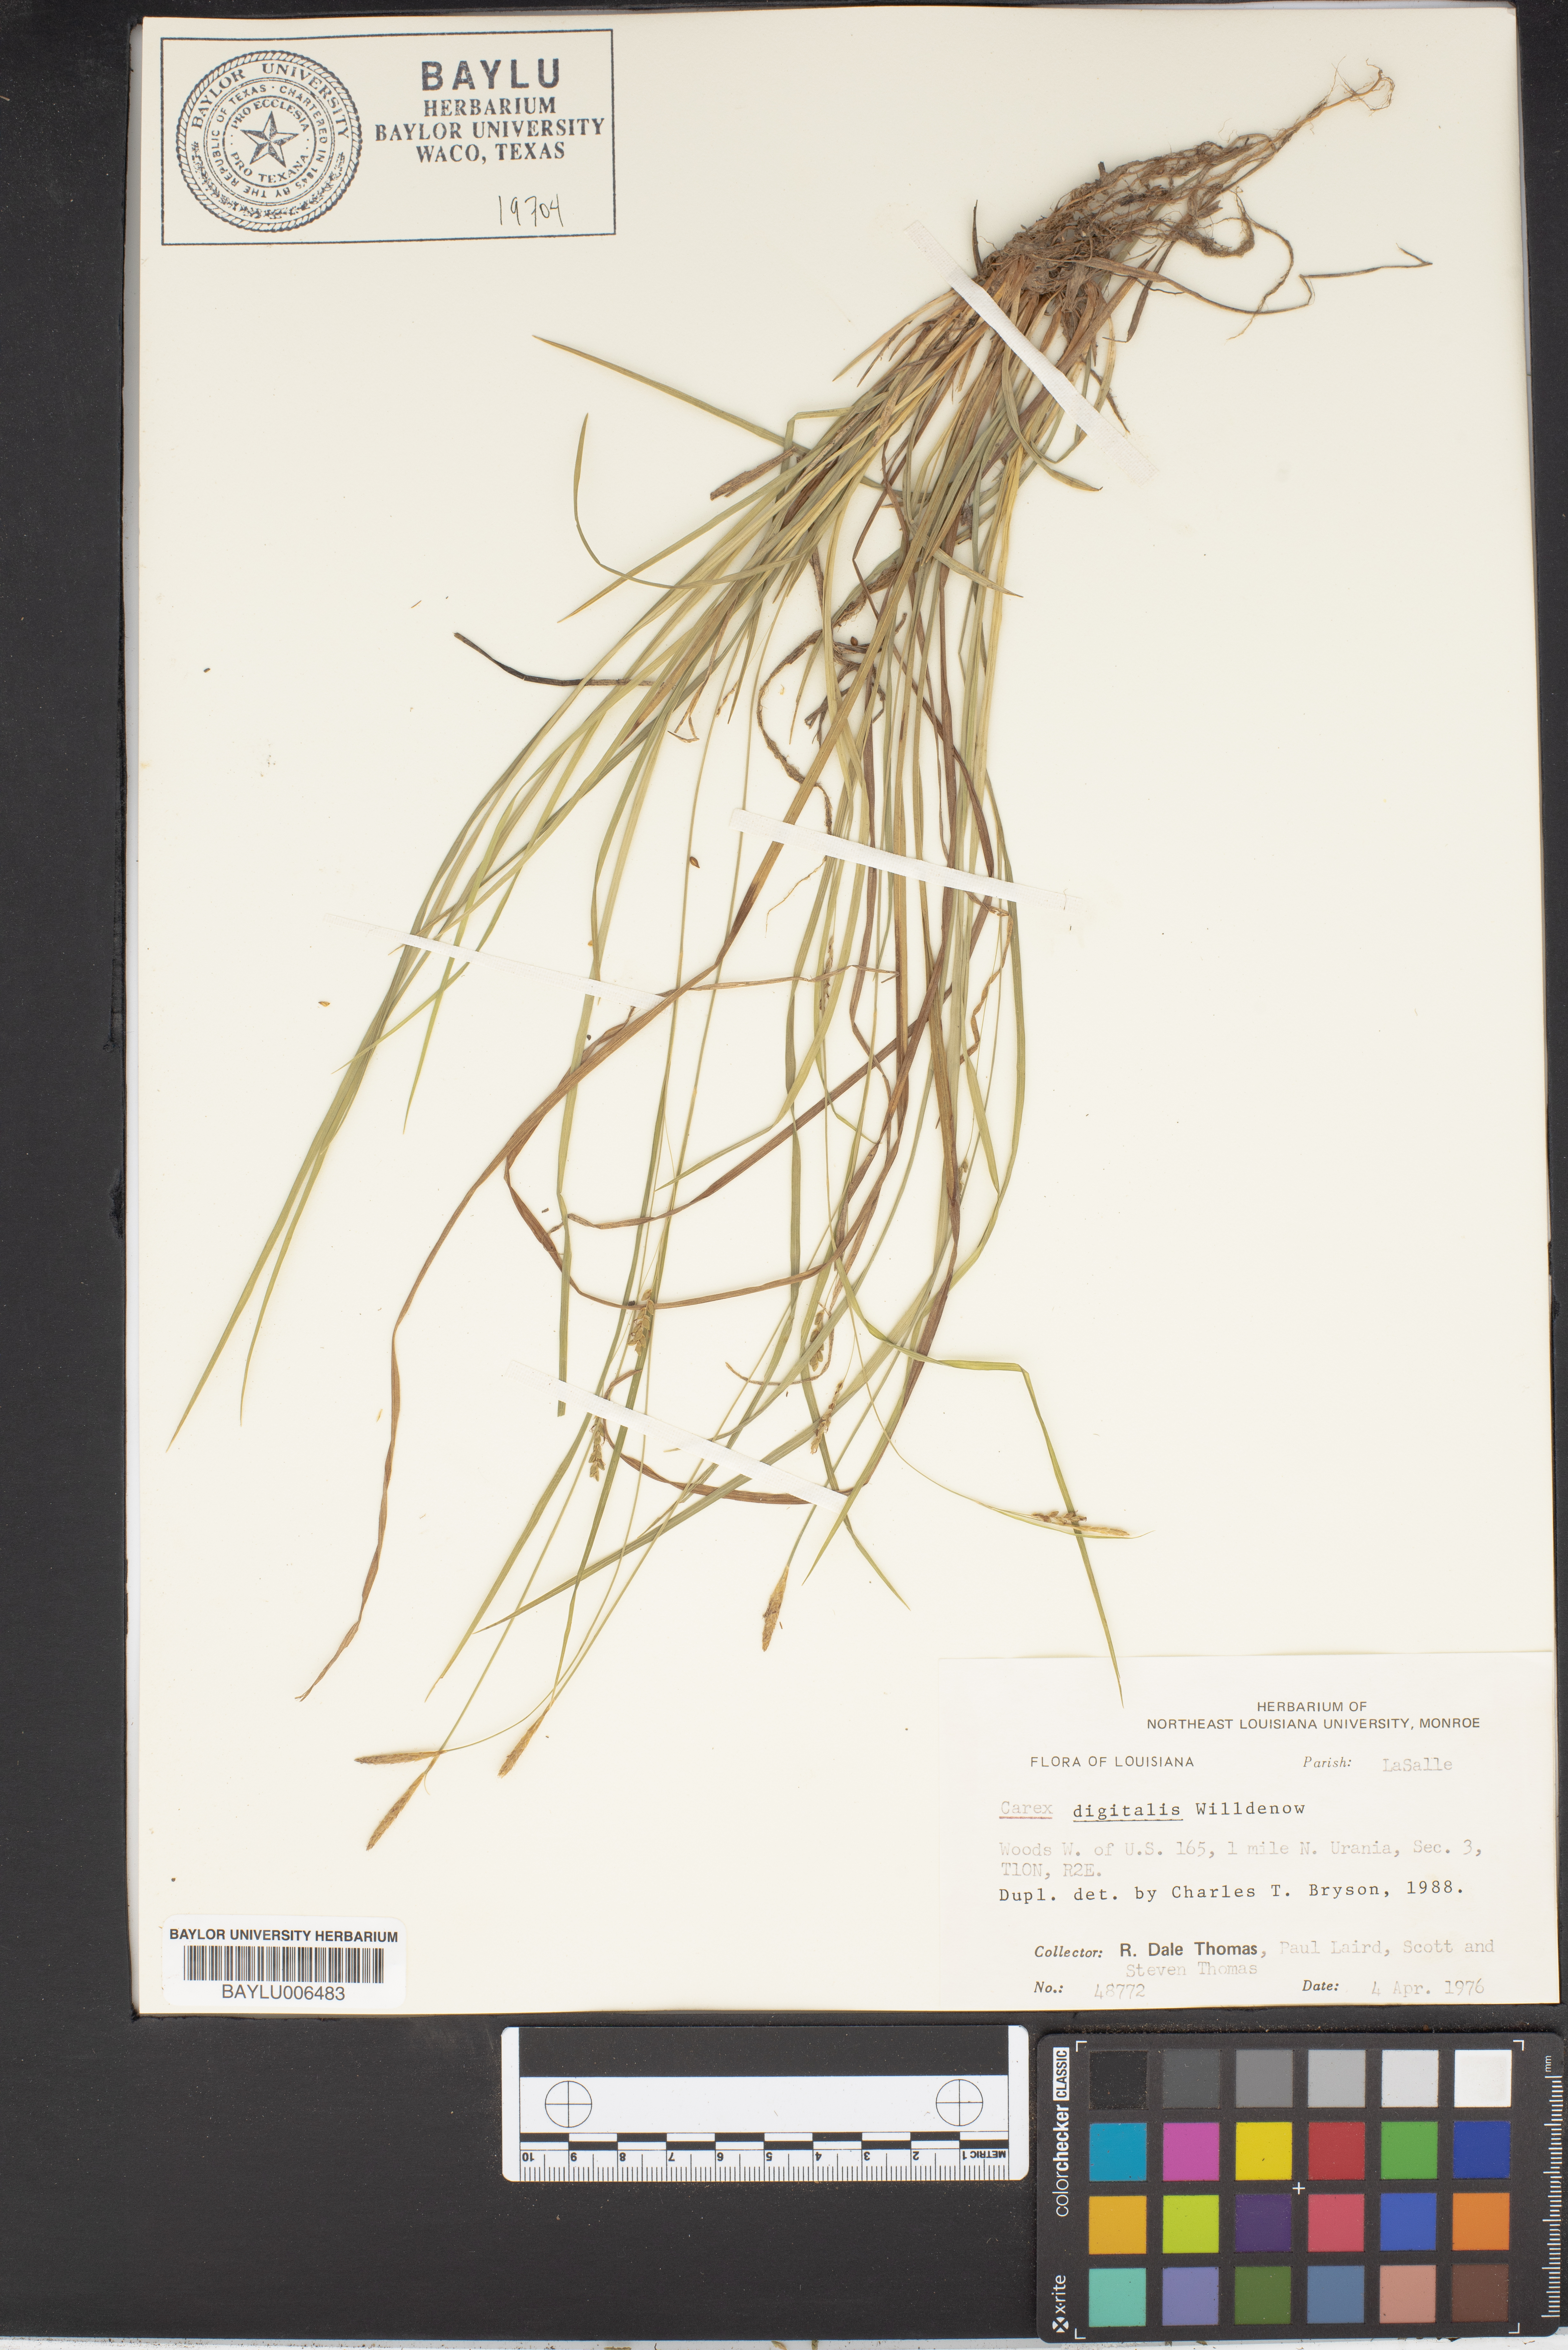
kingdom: Plantae
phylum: Tracheophyta
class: Liliopsida
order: Poales
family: Cyperaceae
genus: Carex
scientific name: Carex digitalis
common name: Slender wood sedge
